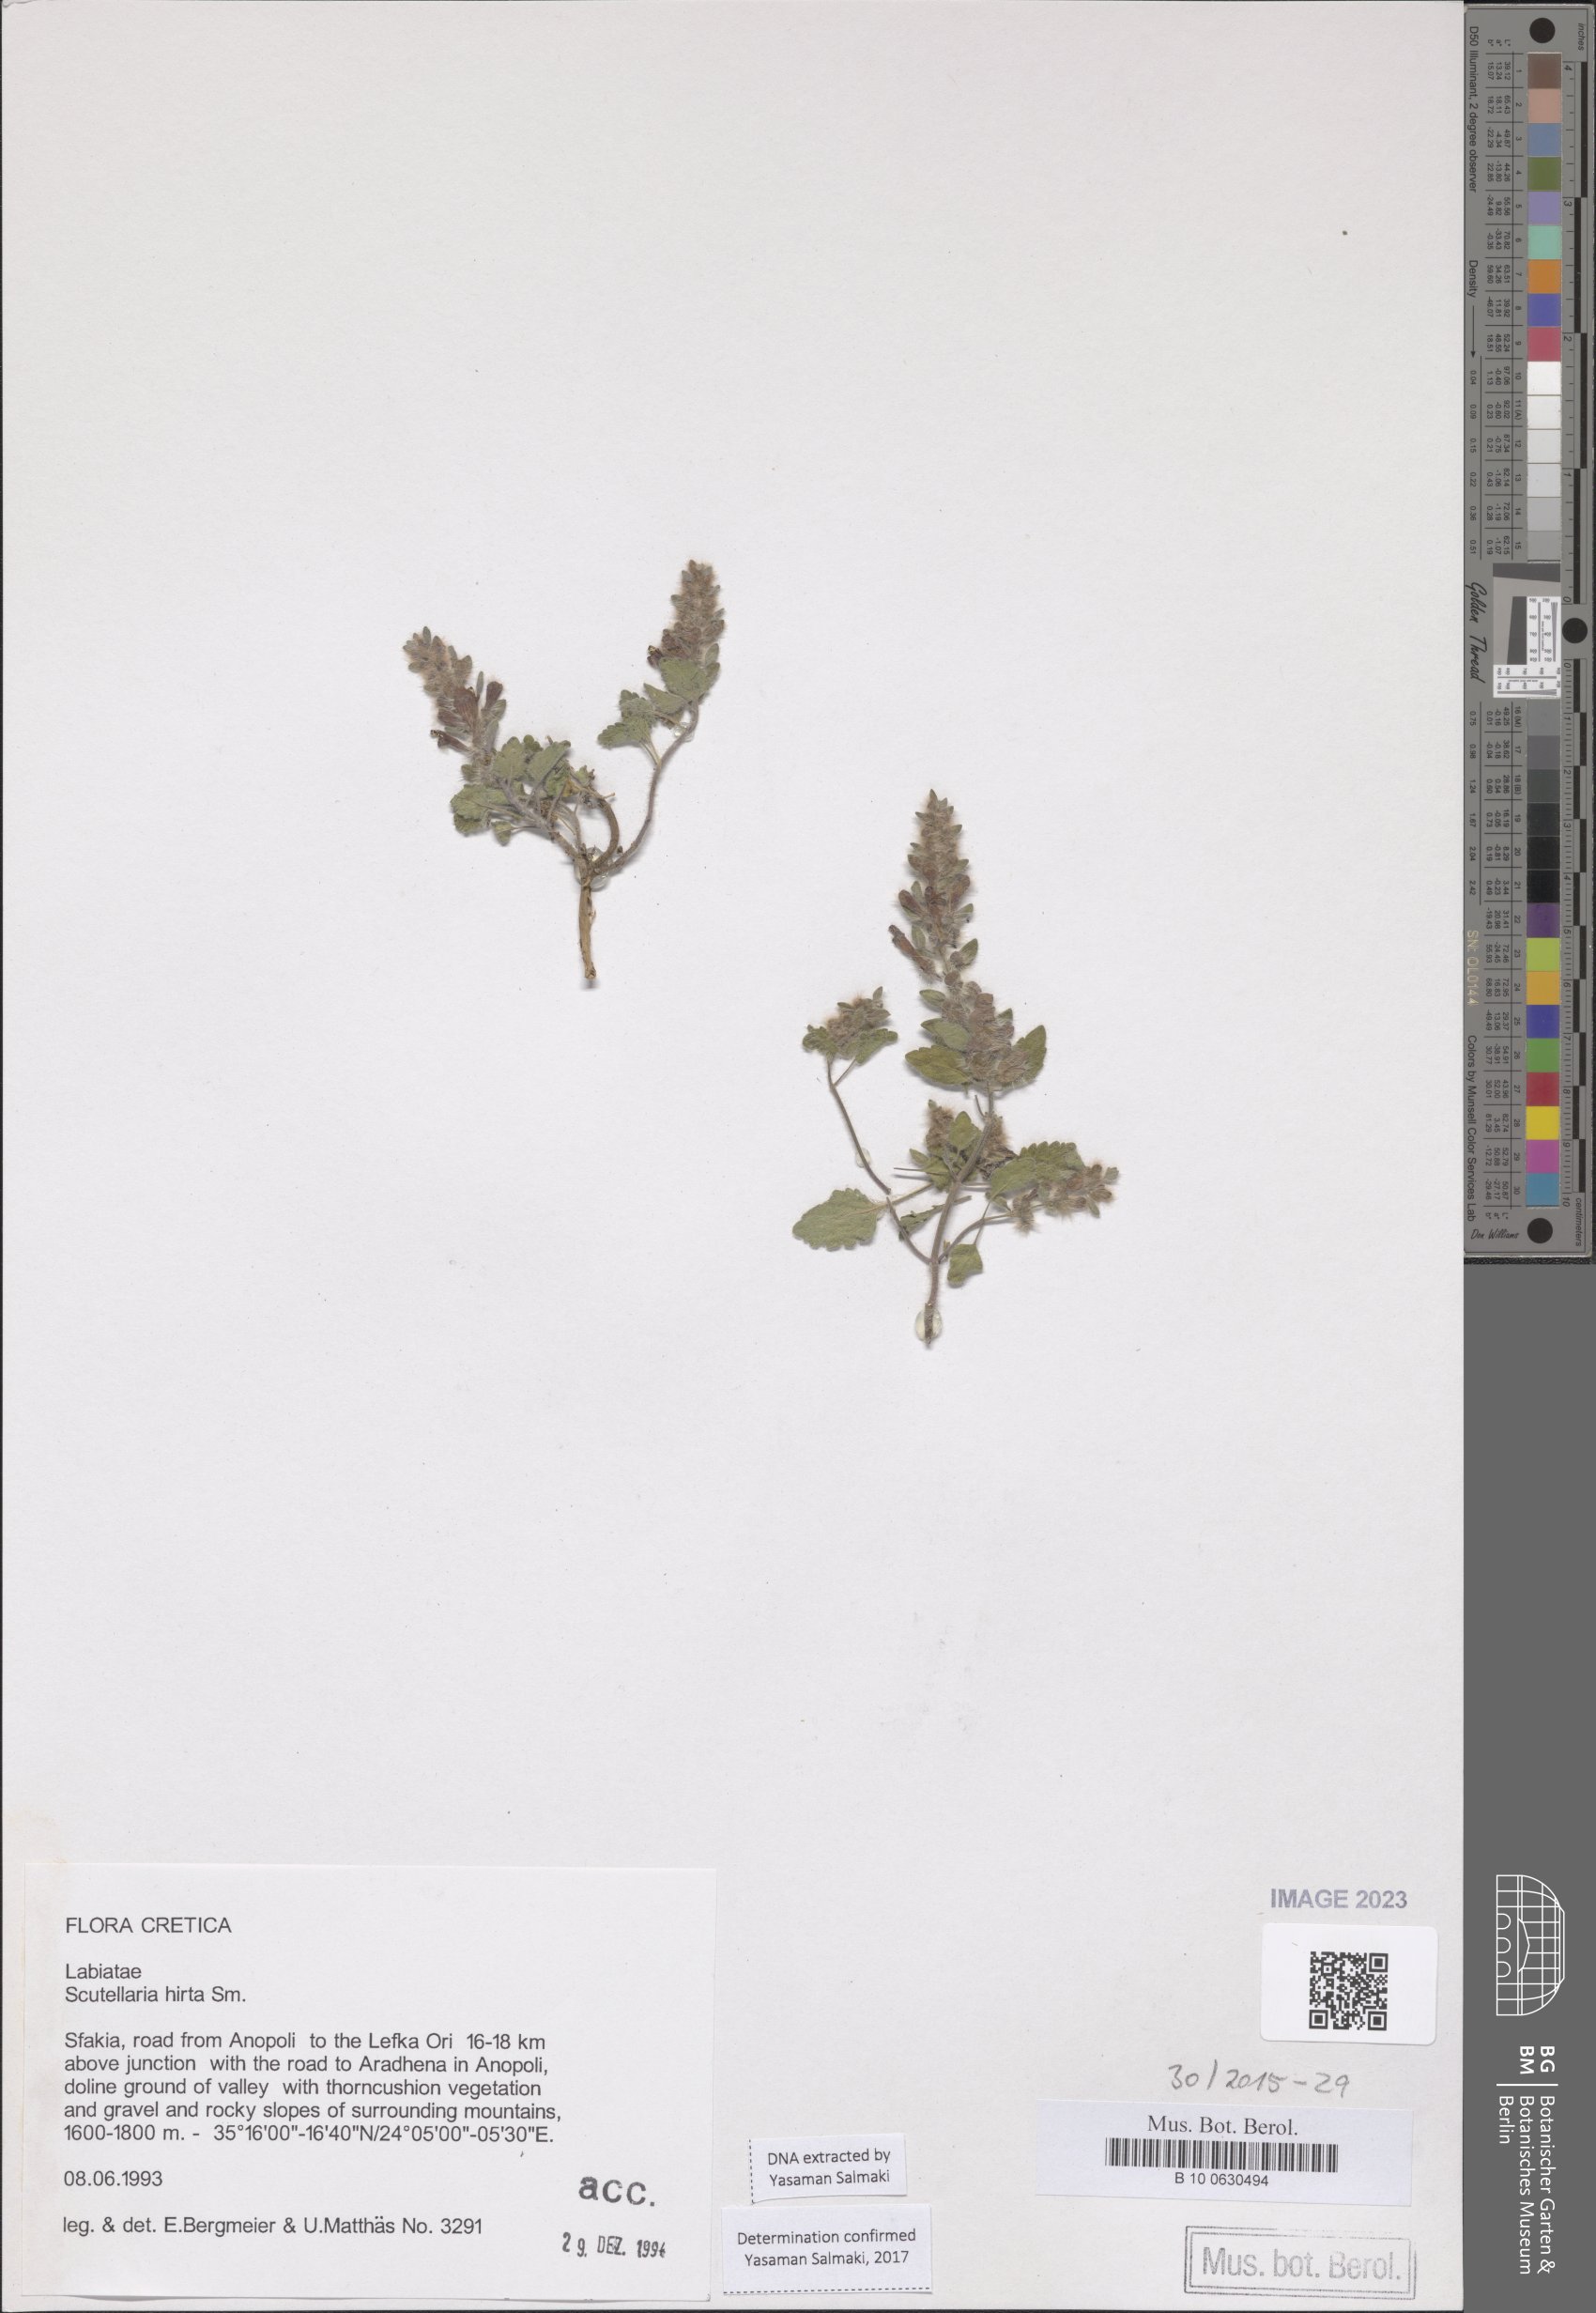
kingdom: Plantae
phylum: Tracheophyta
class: Magnoliopsida
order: Lamiales
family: Lamiaceae
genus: Scutellaria
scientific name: Scutellaria hirta
